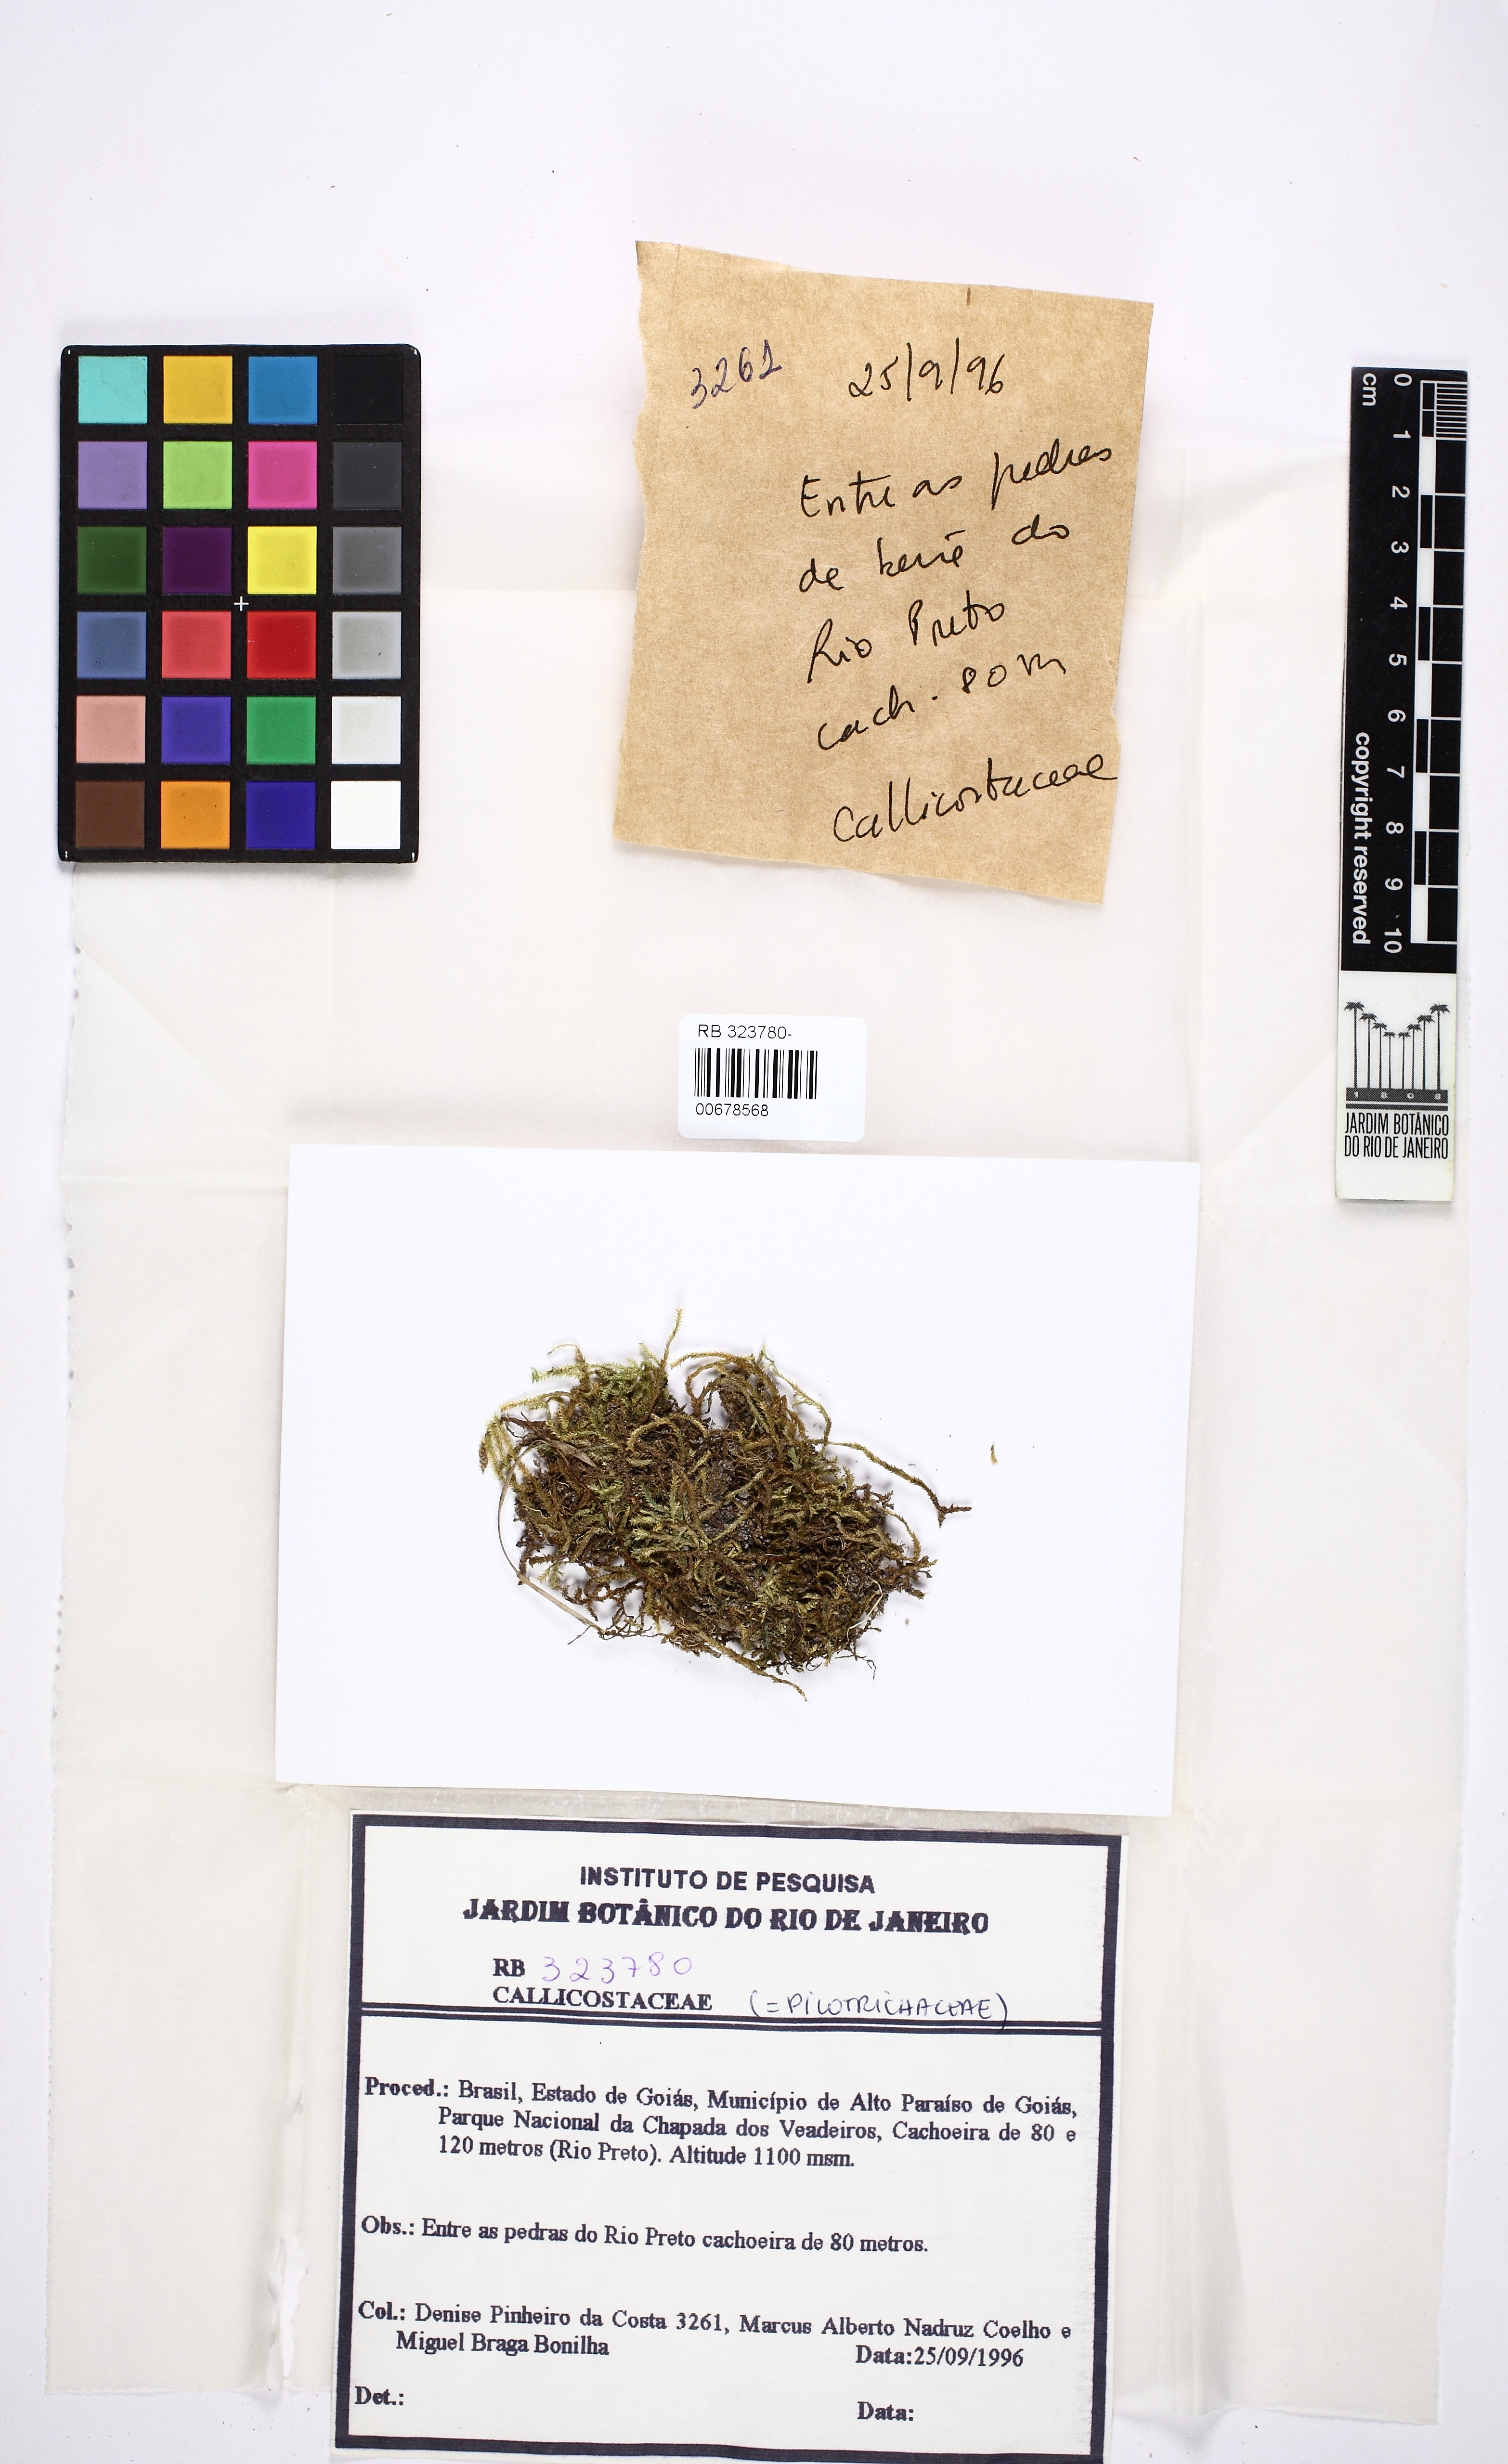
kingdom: Plantae
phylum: Bryophyta
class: Bryopsida
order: Hookeriales
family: Pilotrichaceae
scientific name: Pilotrichaceae
